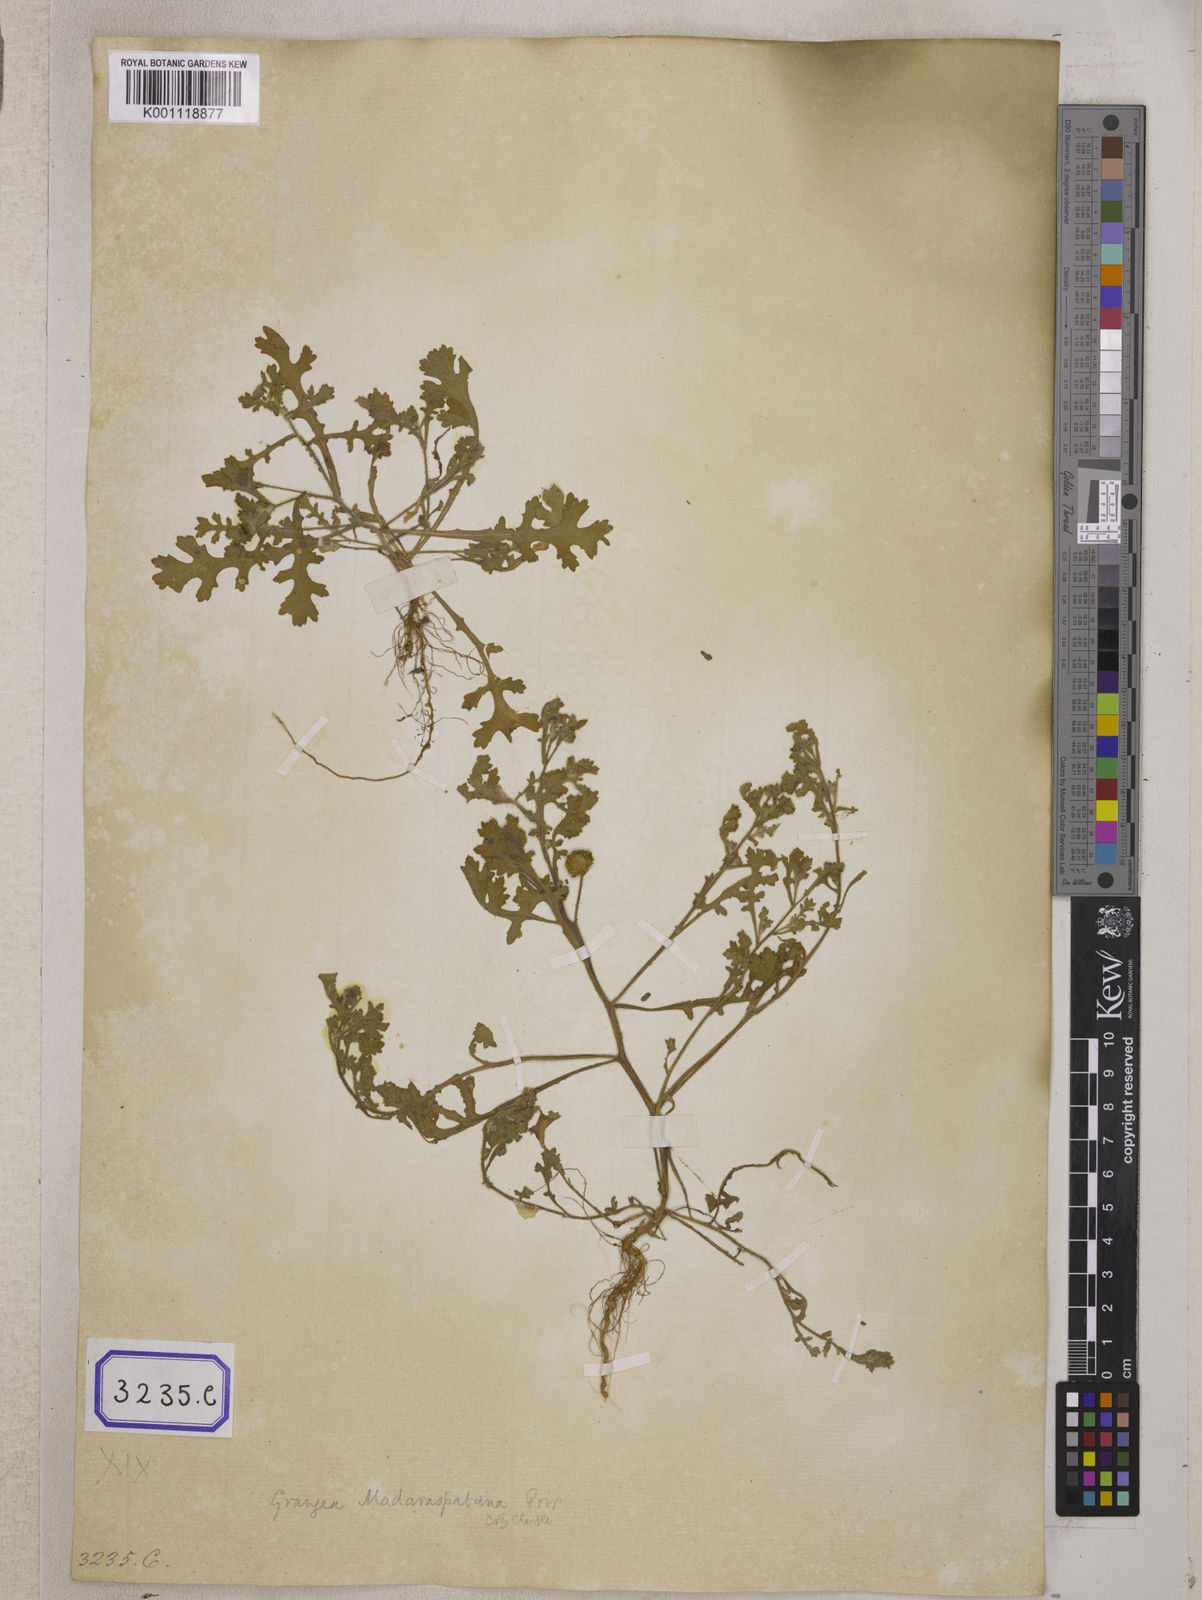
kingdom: Plantae
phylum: Tracheophyta
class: Magnoliopsida
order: Asterales
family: Asteraceae
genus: Grangea
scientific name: Grangea
